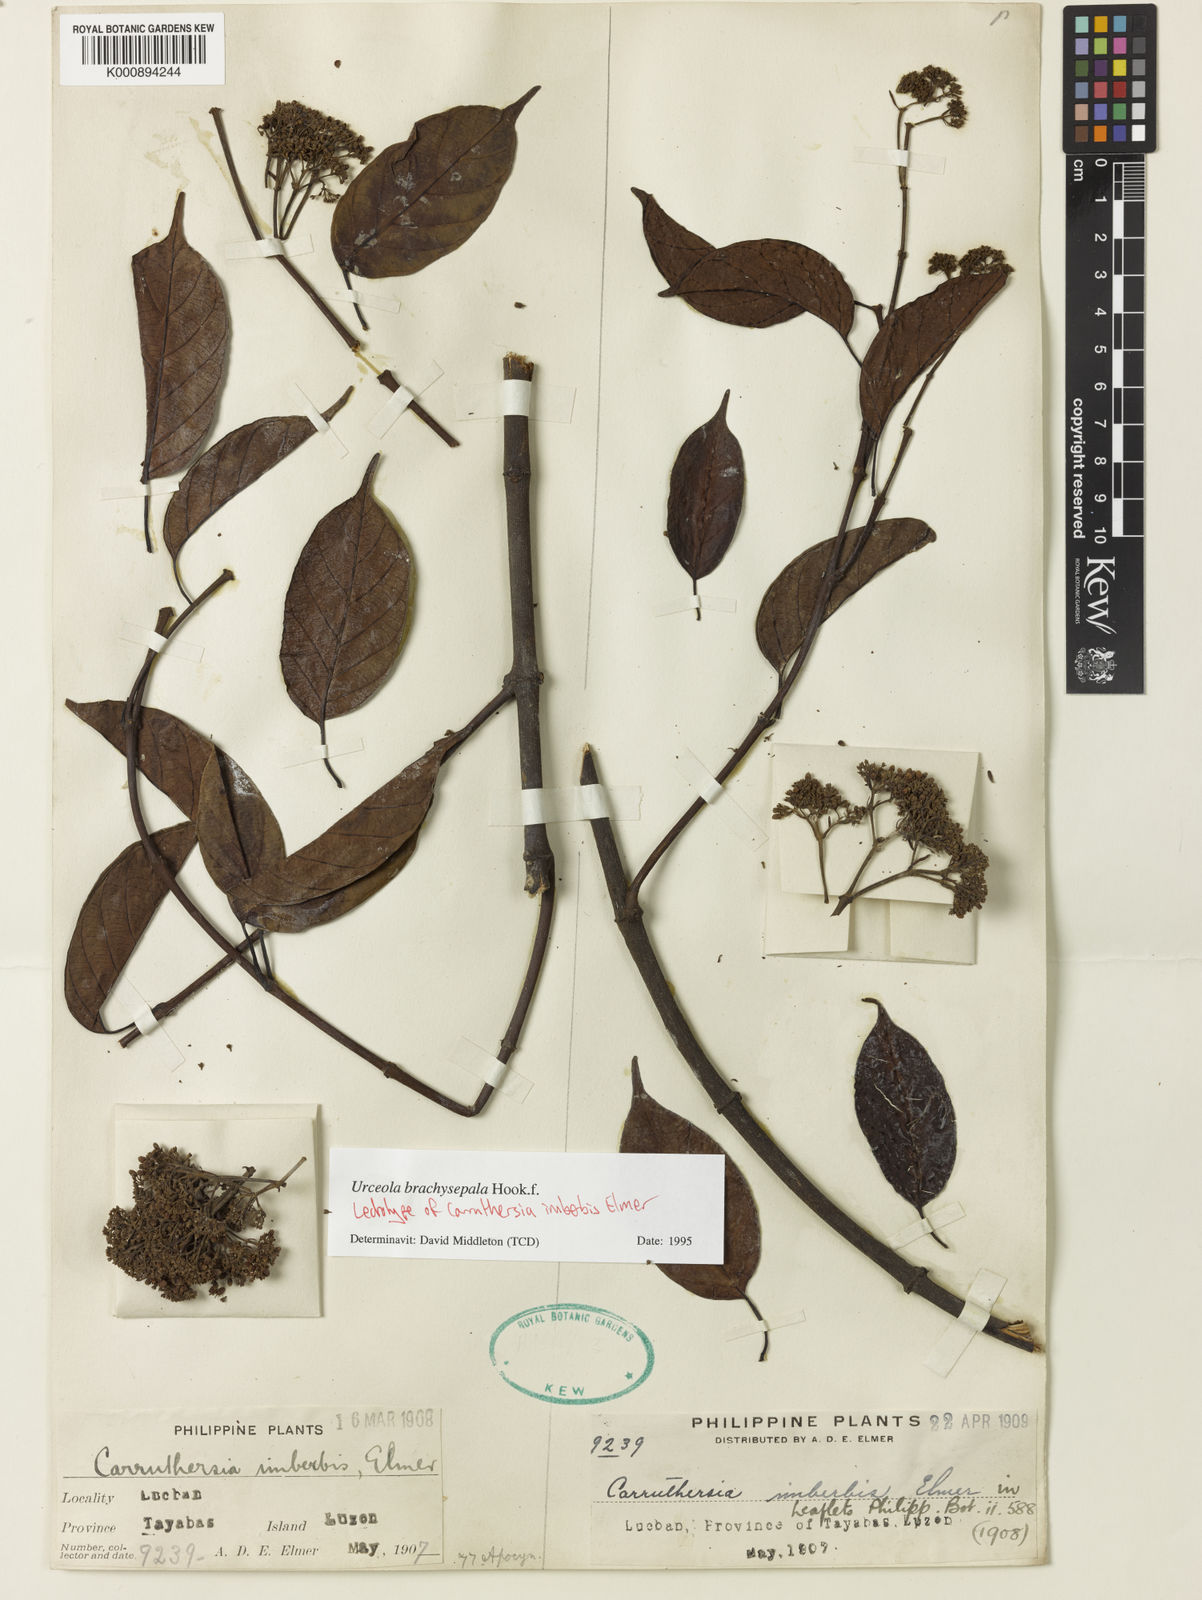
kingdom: Plantae
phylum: Tracheophyta
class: Magnoliopsida
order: Gentianales
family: Apocynaceae
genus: Urceola
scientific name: Urceola brachysepala
